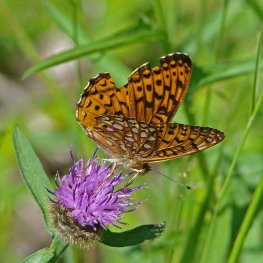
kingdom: Animalia
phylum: Arthropoda
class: Insecta
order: Lepidoptera
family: Nymphalidae
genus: Speyeria
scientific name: Speyeria atlantis
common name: Atlantis Fritillary
